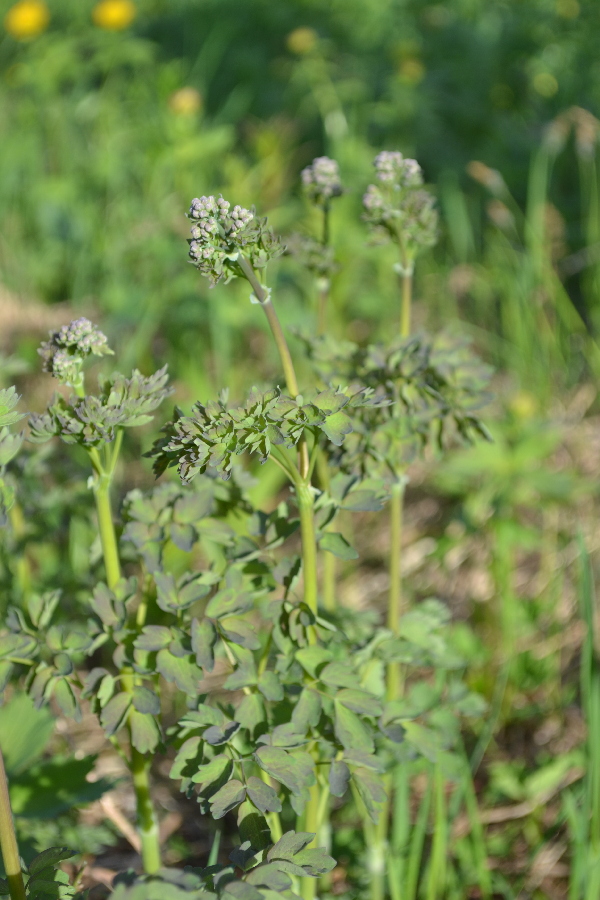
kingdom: Plantae
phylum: Tracheophyta
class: Magnoliopsida
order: Ranunculales
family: Ranunculaceae
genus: Thalictrum
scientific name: Thalictrum minus
